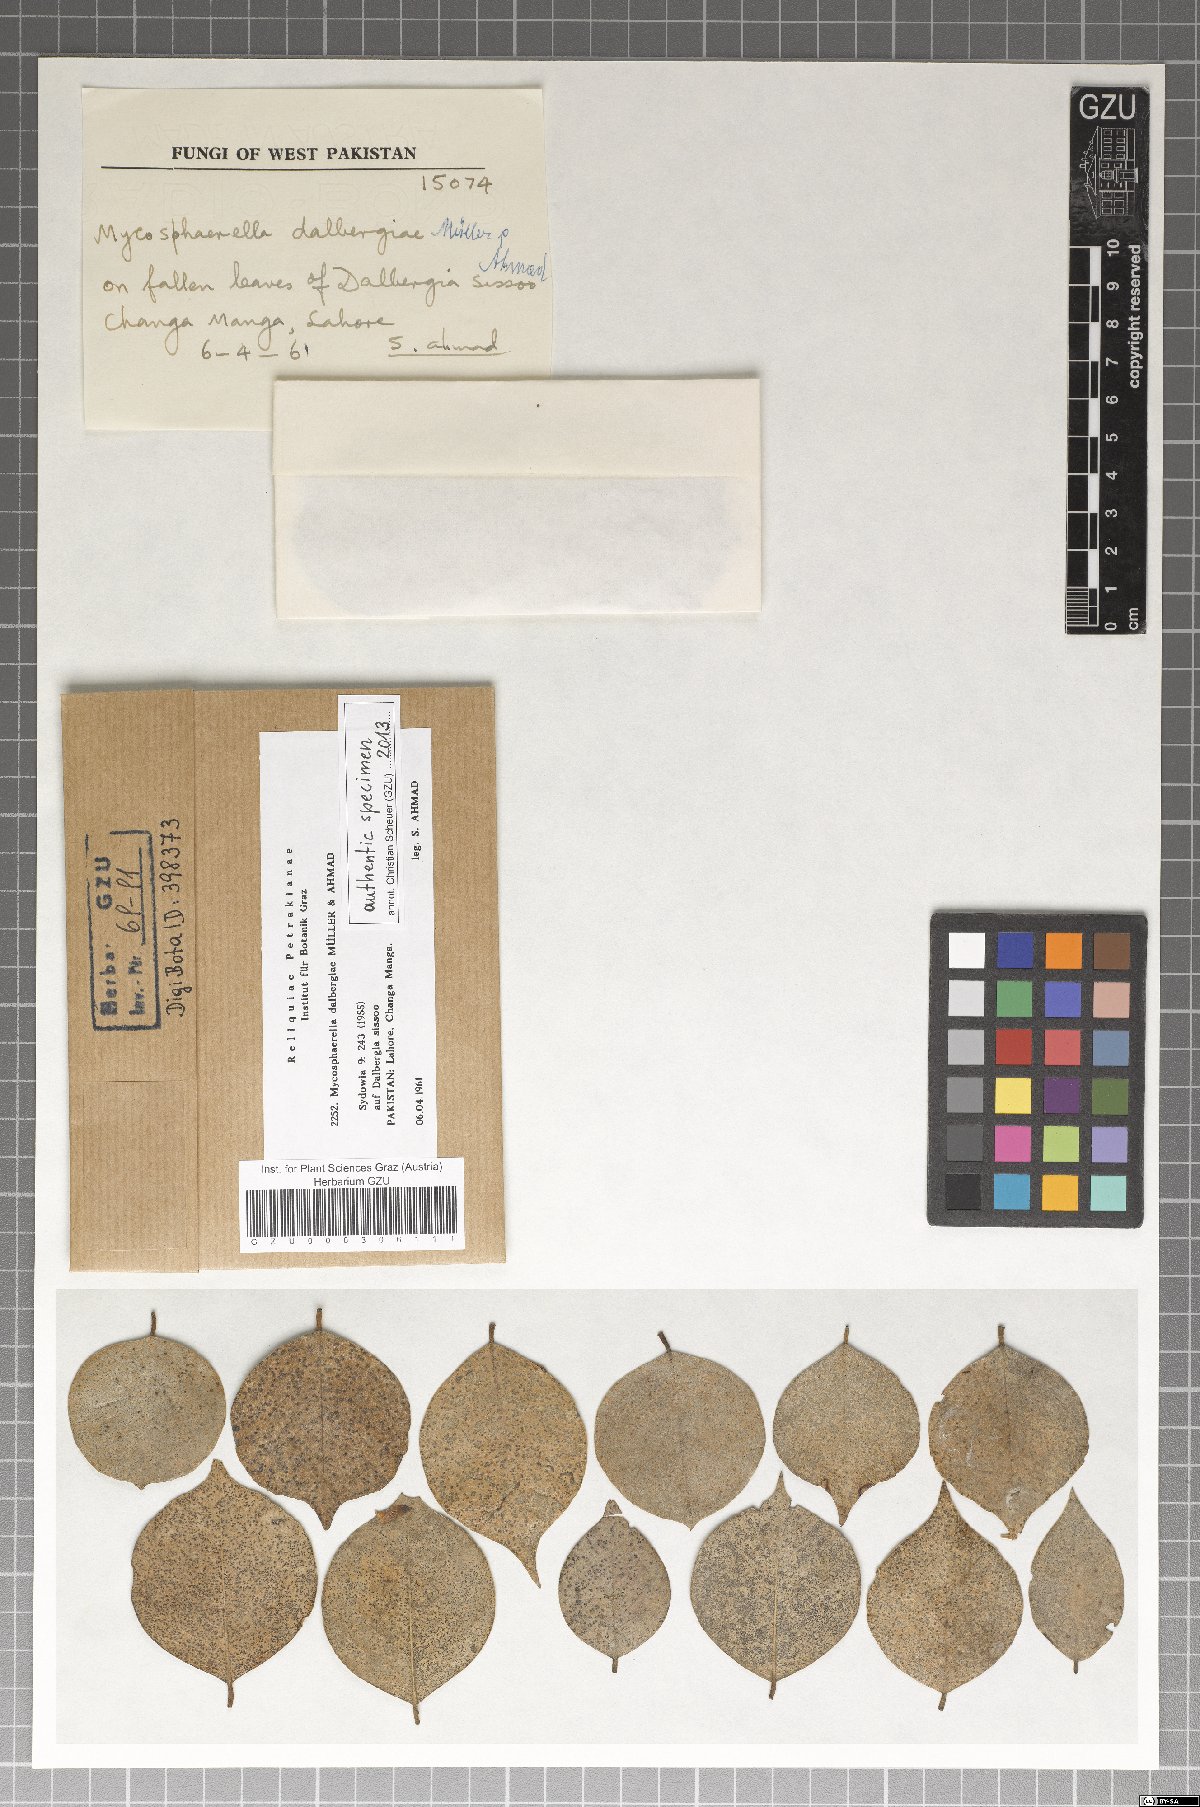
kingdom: Fungi
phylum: Ascomycota
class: Dothideomycetes
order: Mycosphaerellales
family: Mycosphaerellaceae
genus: Mycosphaerella
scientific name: Mycosphaerella dalbergiae
